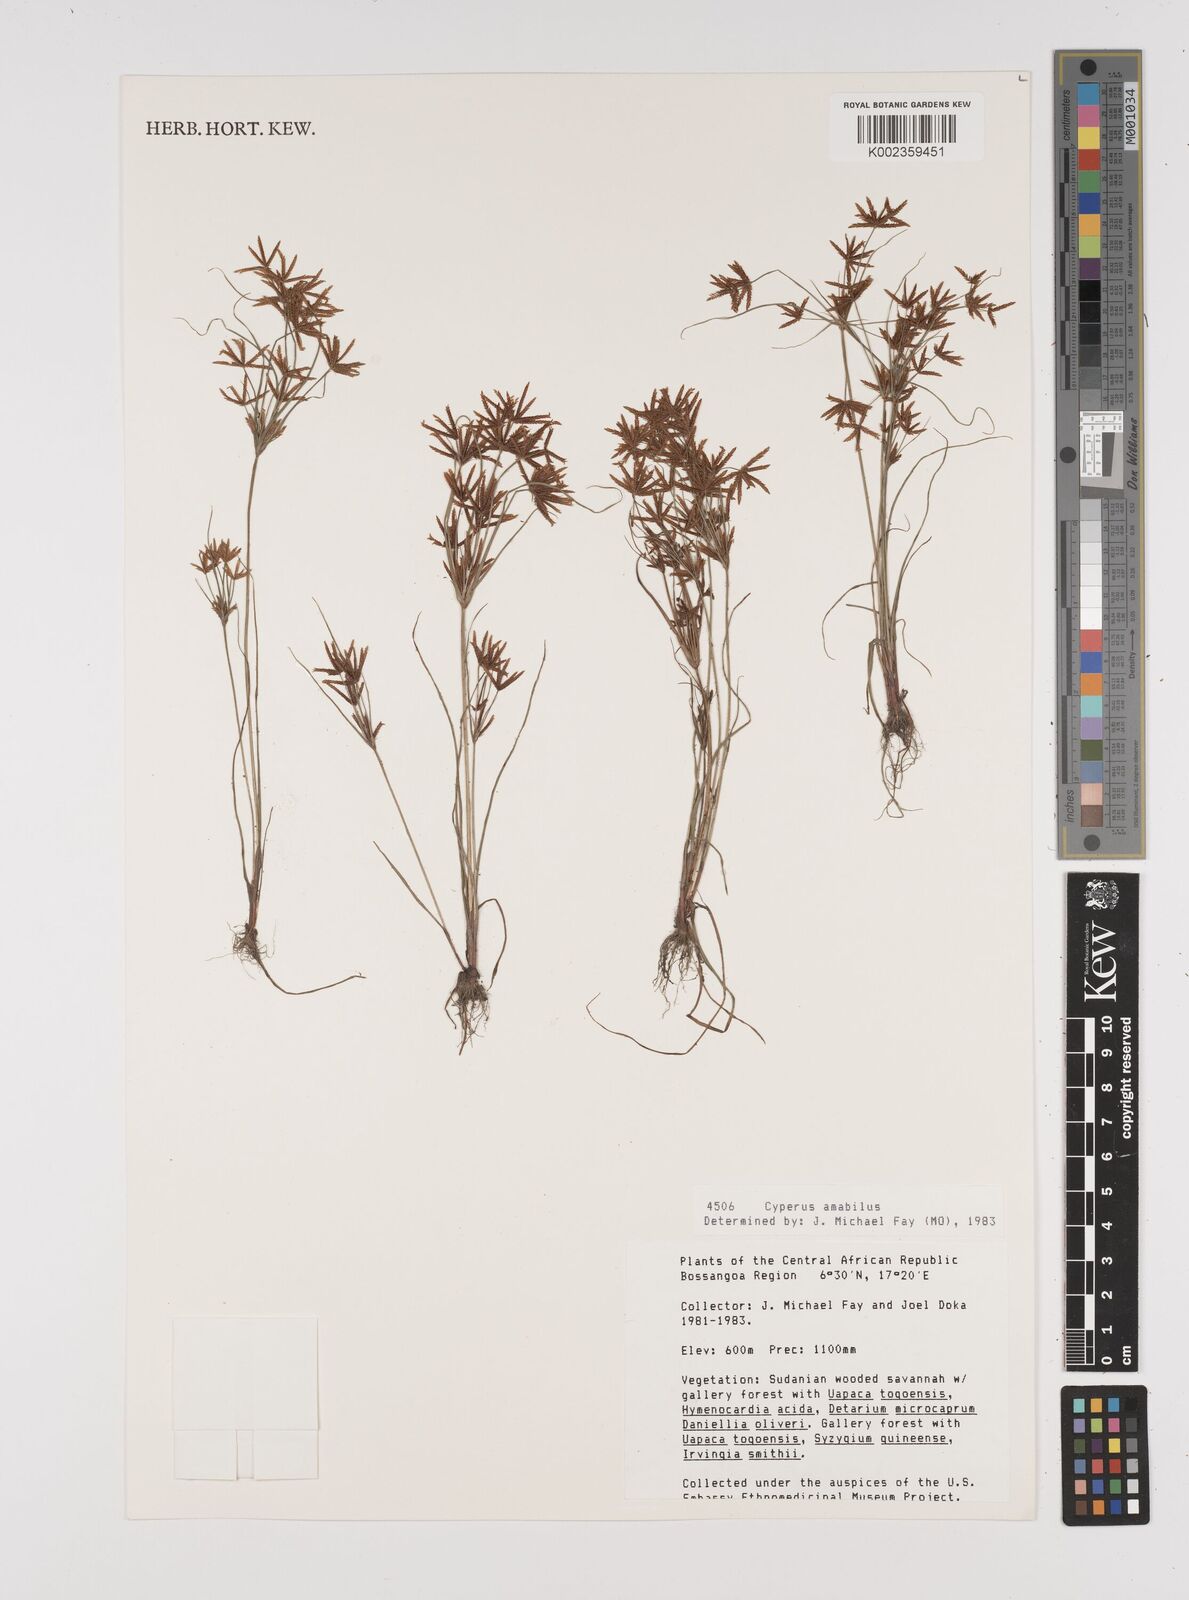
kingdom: Plantae
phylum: Tracheophyta
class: Liliopsida
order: Poales
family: Cyperaceae
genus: Cyperus
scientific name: Cyperus amabilis
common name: Foothill flat sedge
